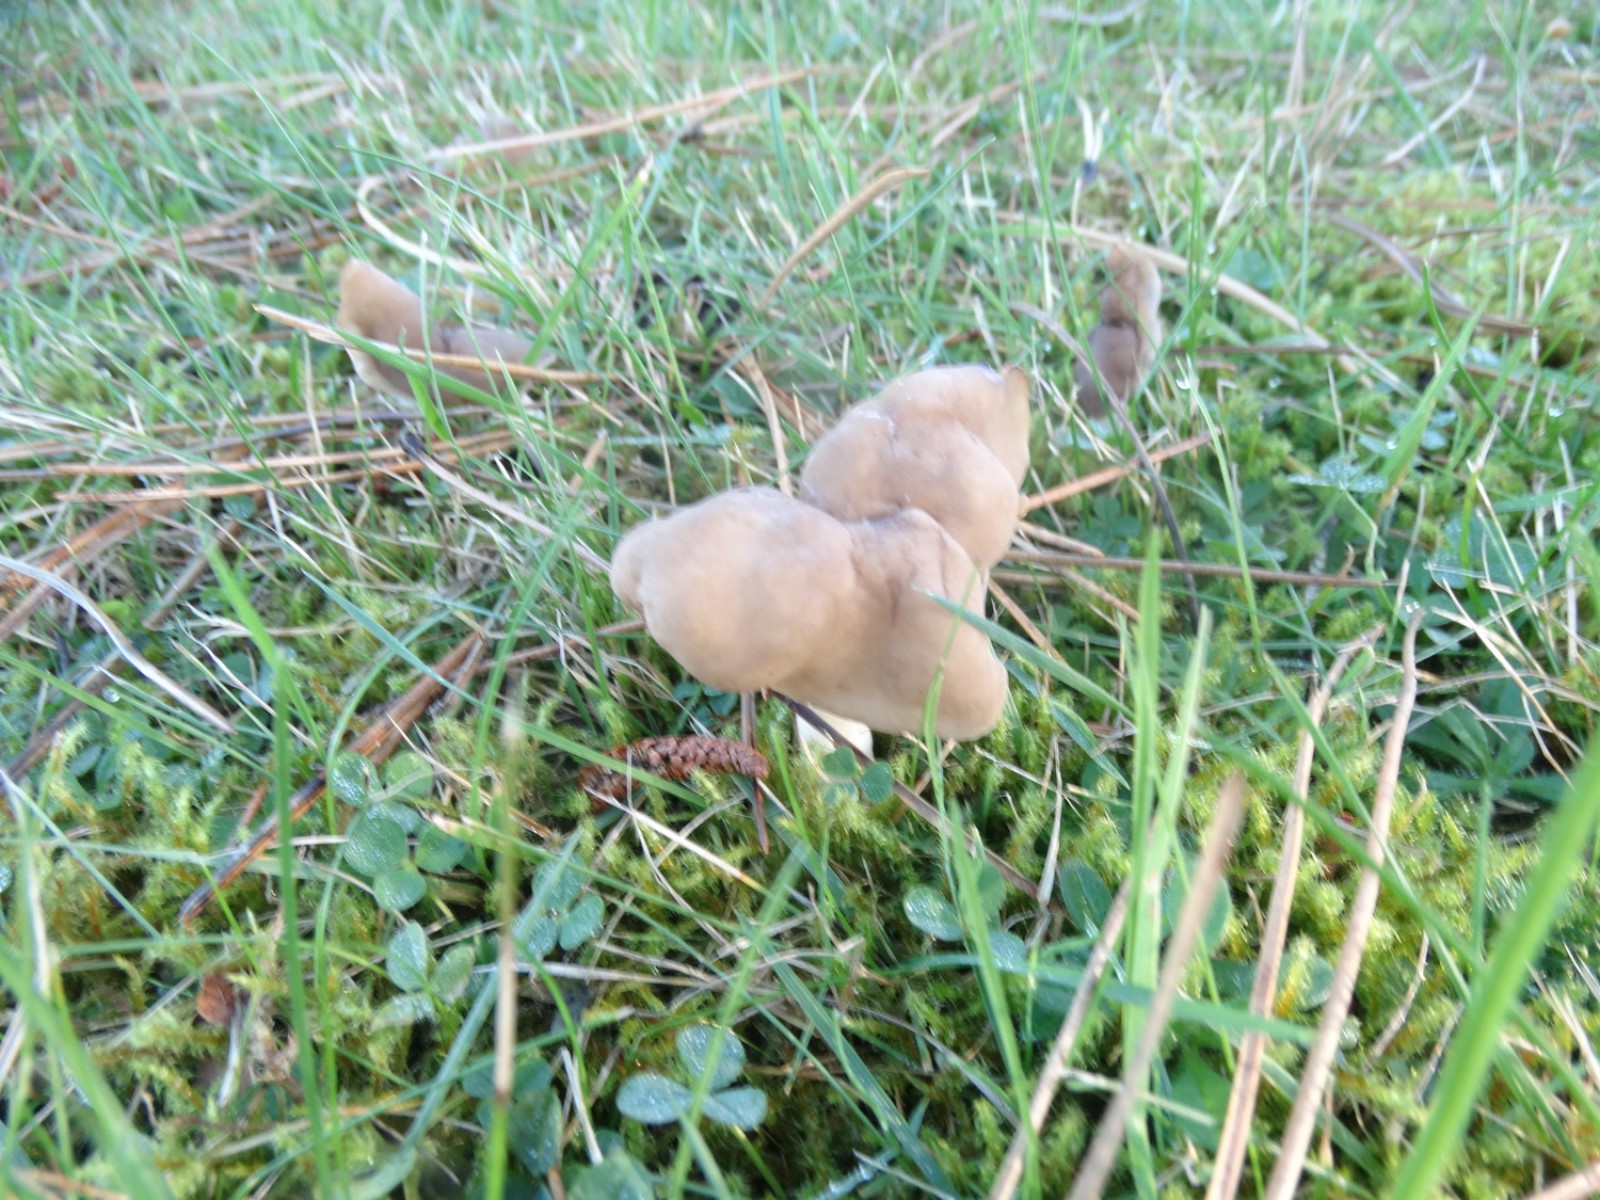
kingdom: Fungi
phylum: Ascomycota
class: Pezizomycetes
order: Pezizales
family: Helvellaceae
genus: Helvella
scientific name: Helvella
